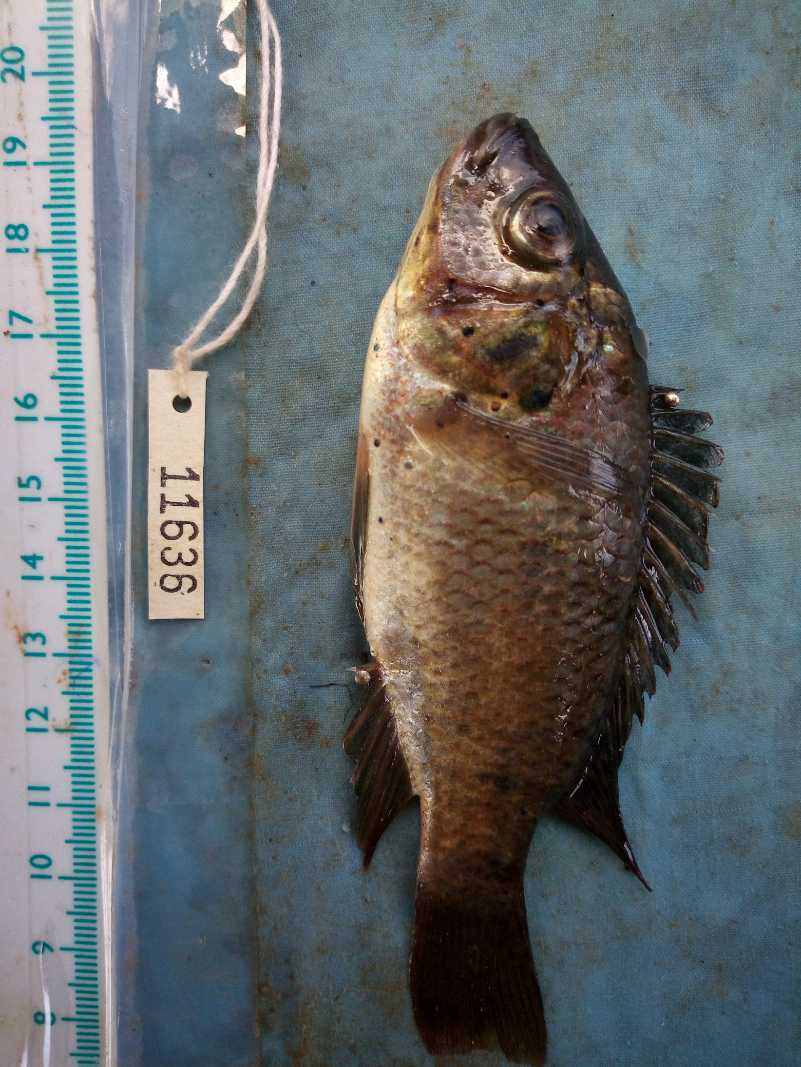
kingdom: Animalia
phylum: Chordata
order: Perciformes
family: Cichlidae
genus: Oreochromis
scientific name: Oreochromis spilurus
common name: Sabaki tilapia
